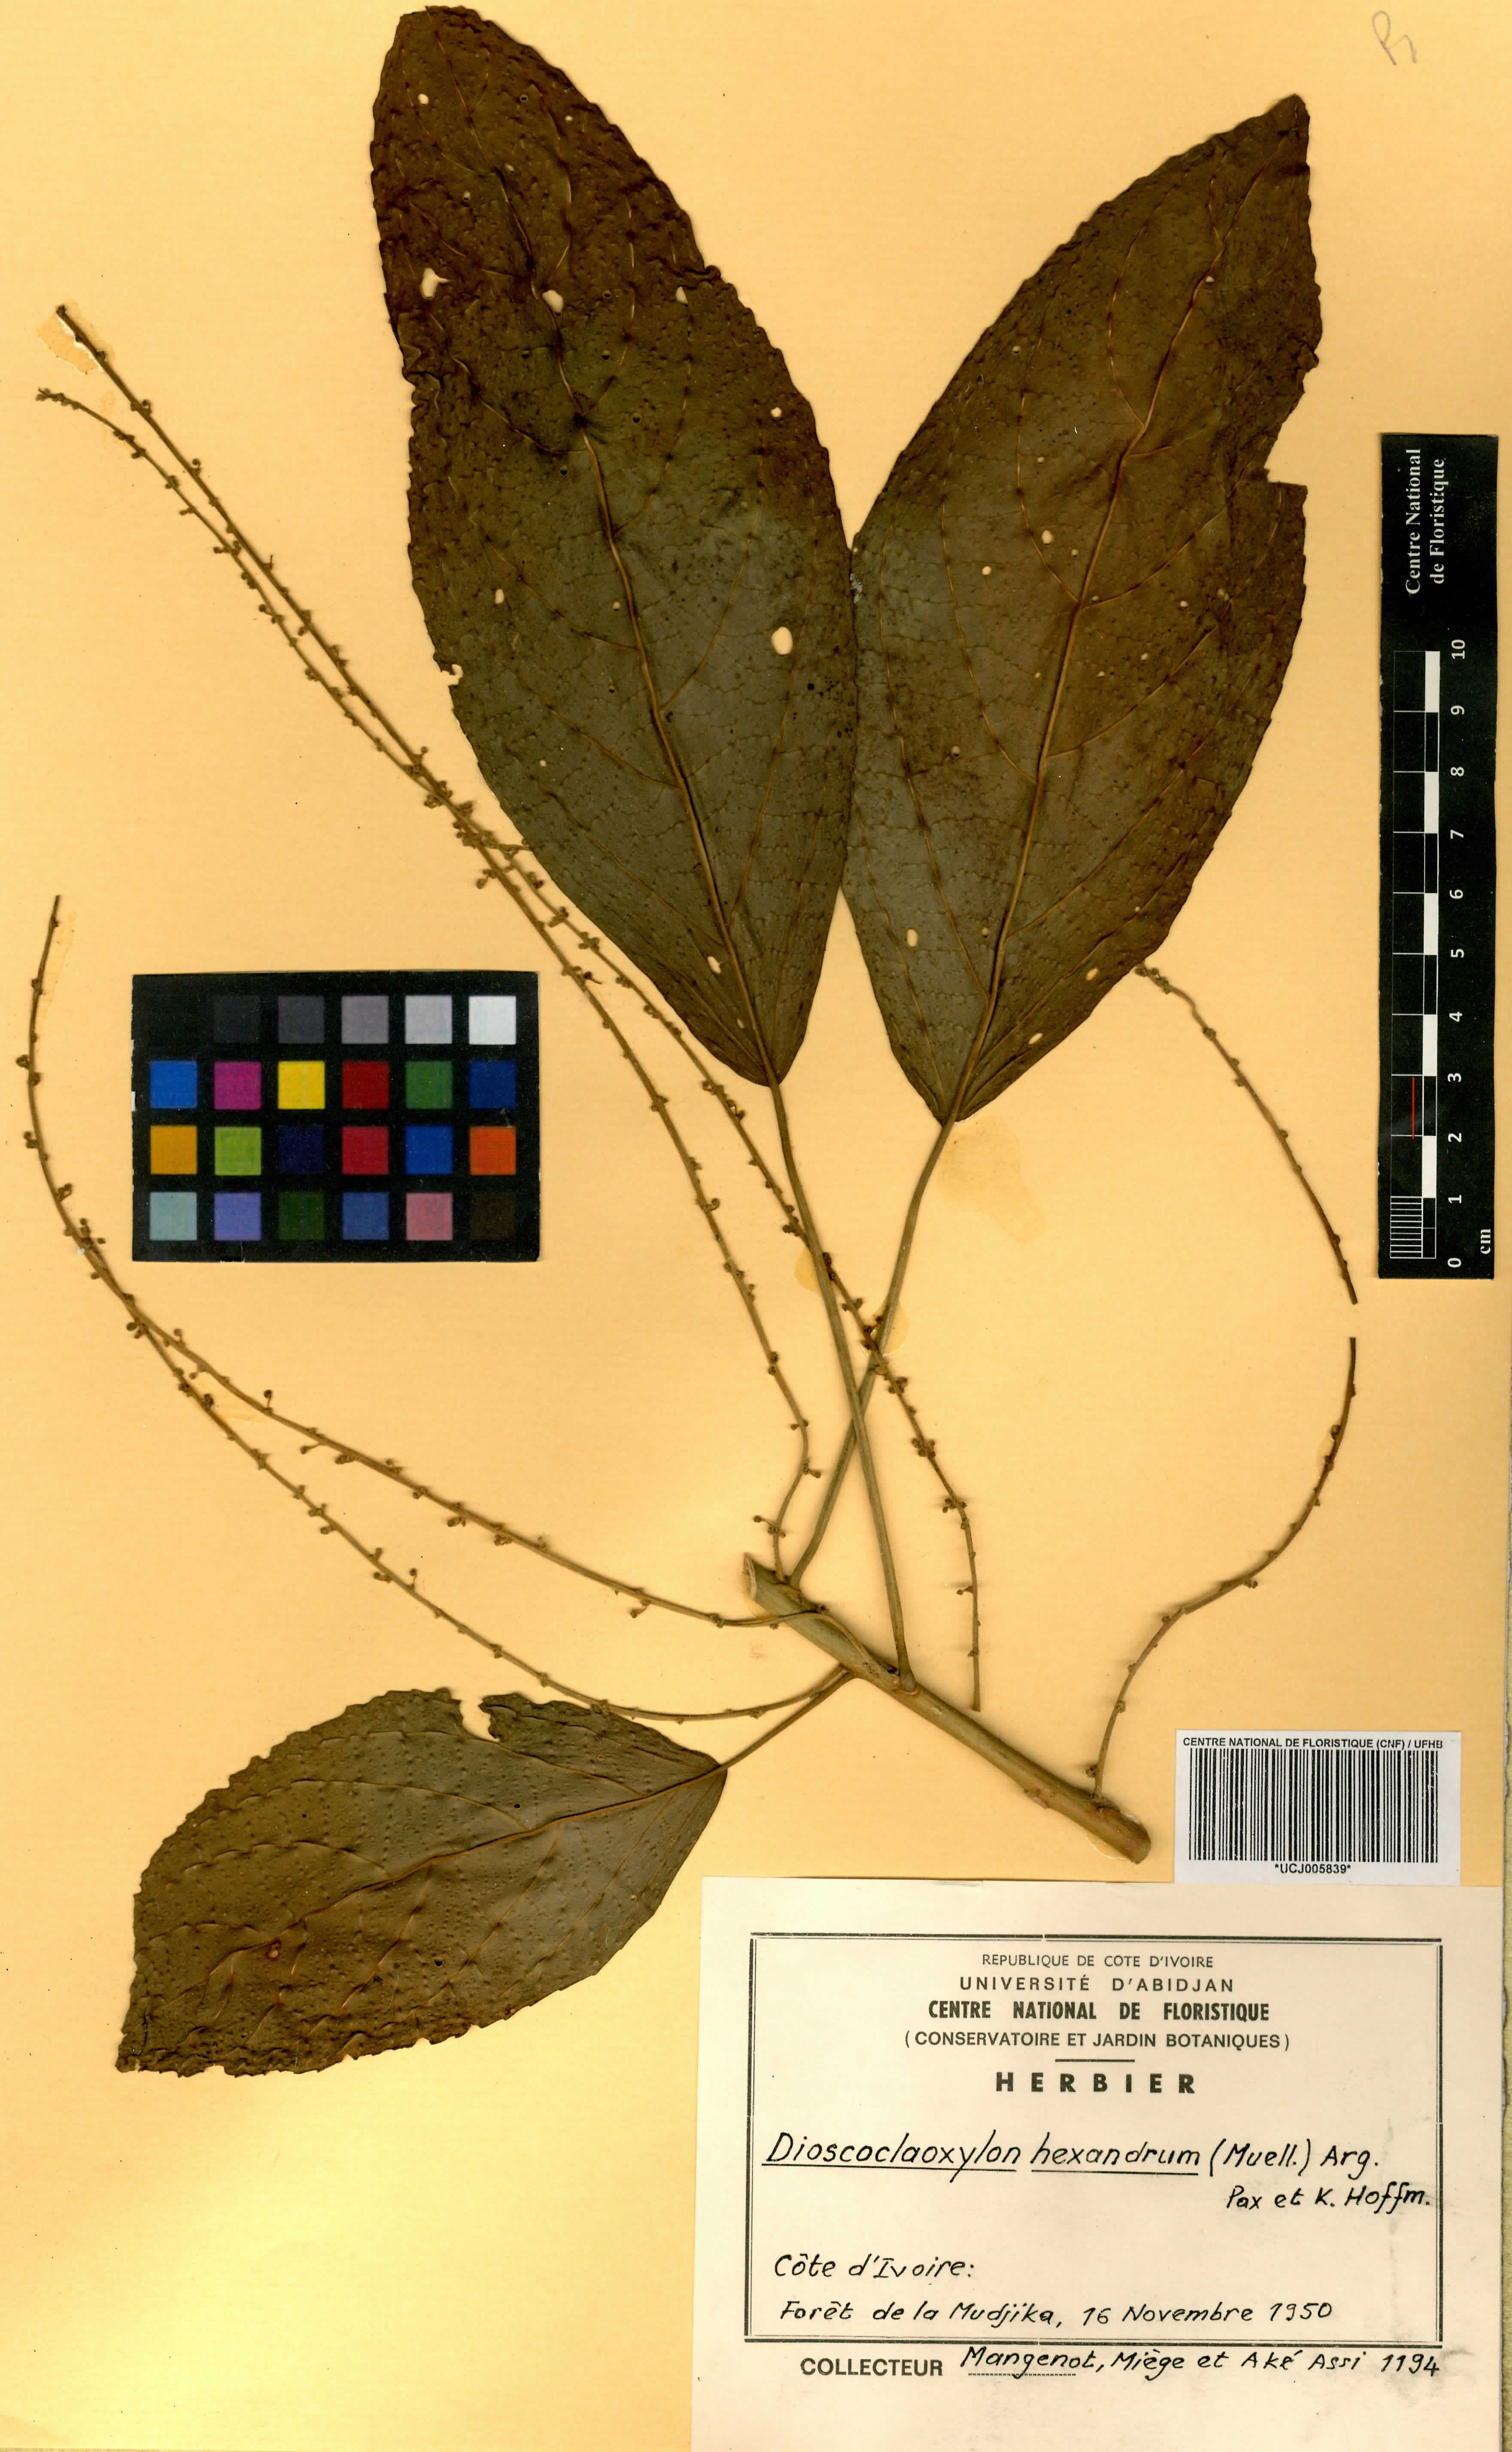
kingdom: Plantae
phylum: Tracheophyta
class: Magnoliopsida
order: Malpighiales
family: Euphorbiaceae
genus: Discoclaoxylon
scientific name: Discoclaoxylon hexandrum
